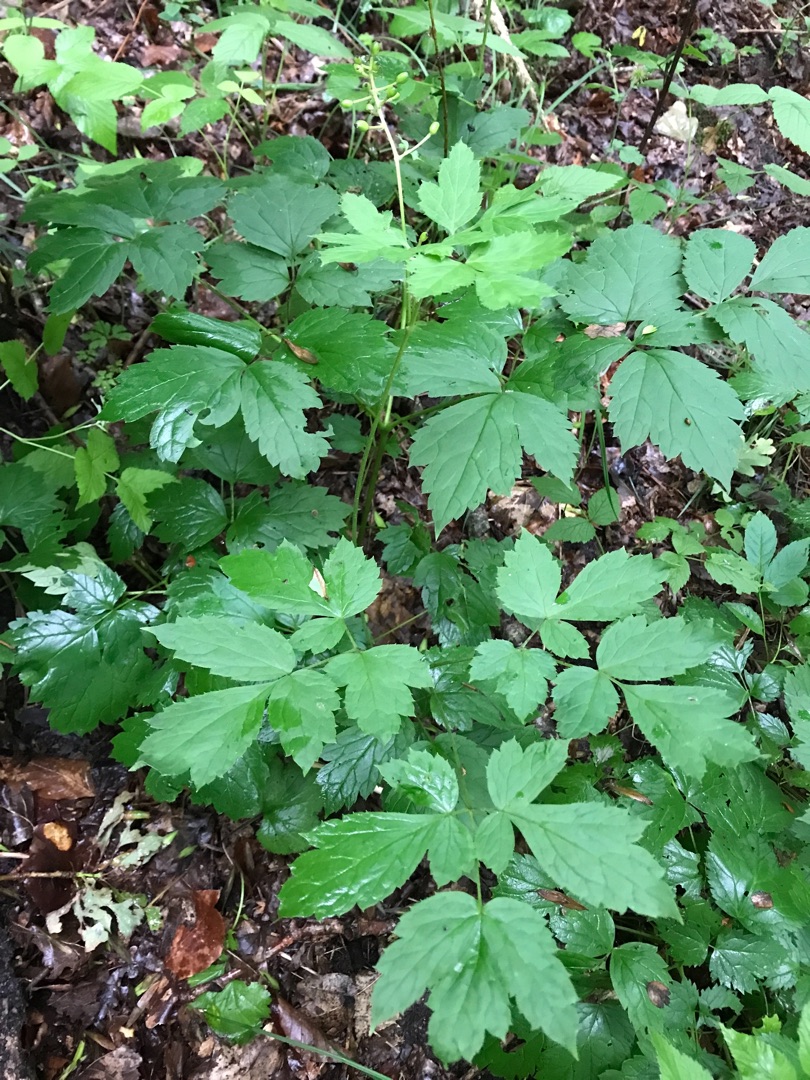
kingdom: Plantae
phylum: Tracheophyta
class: Magnoliopsida
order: Ranunculales
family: Ranunculaceae
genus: Actaea
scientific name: Actaea spicata
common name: Druemunke
